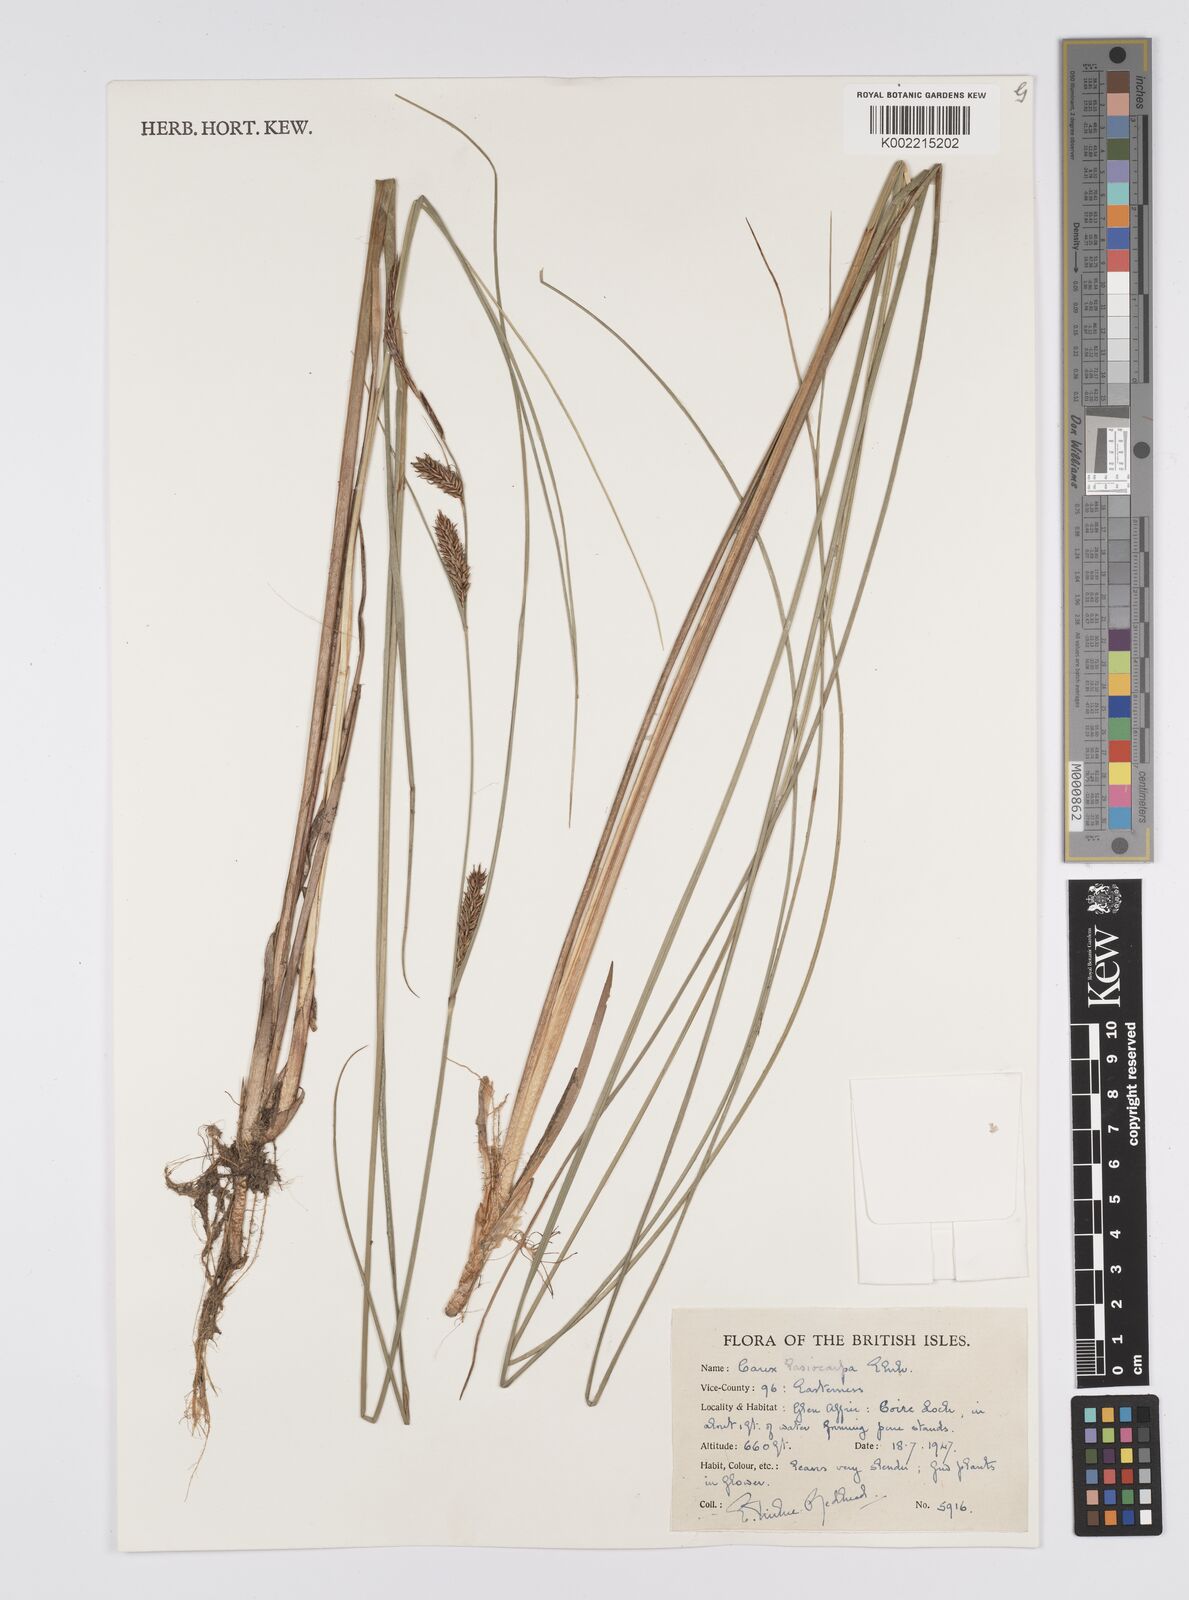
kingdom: Plantae
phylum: Tracheophyta
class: Liliopsida
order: Poales
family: Cyperaceae
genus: Carex
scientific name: Carex lasiocarpa
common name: Slender sedge
